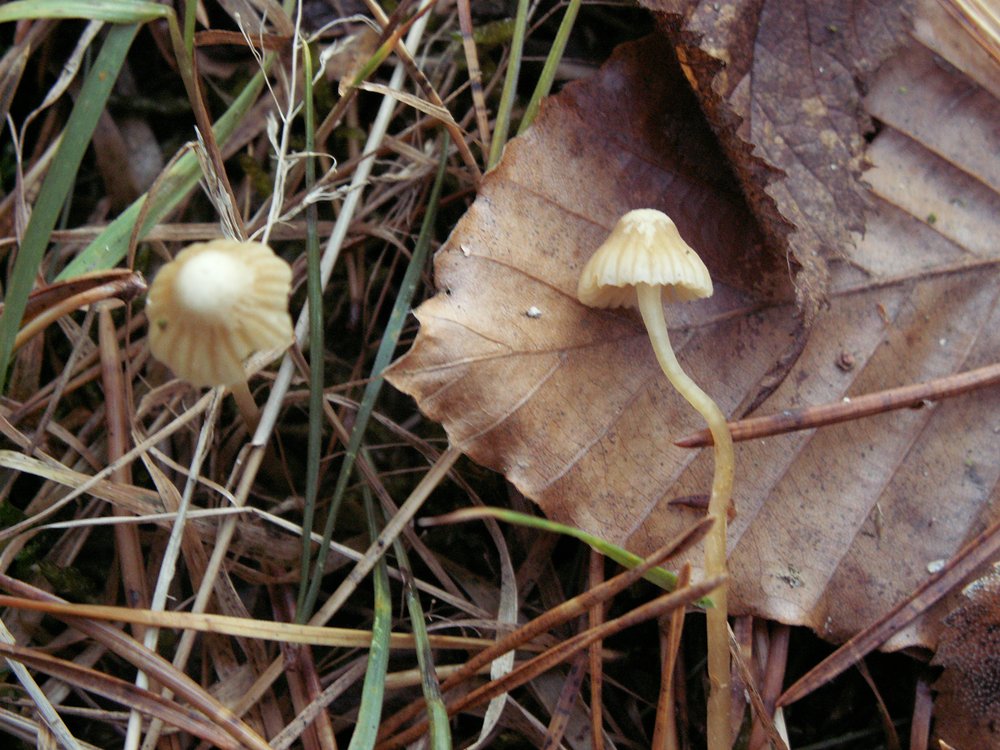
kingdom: Fungi
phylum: Basidiomycota
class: Agaricomycetes
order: Agaricales
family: Hymenogastraceae
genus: Galerina
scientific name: Galerina cephalotricha
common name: hede-hjelmhat
